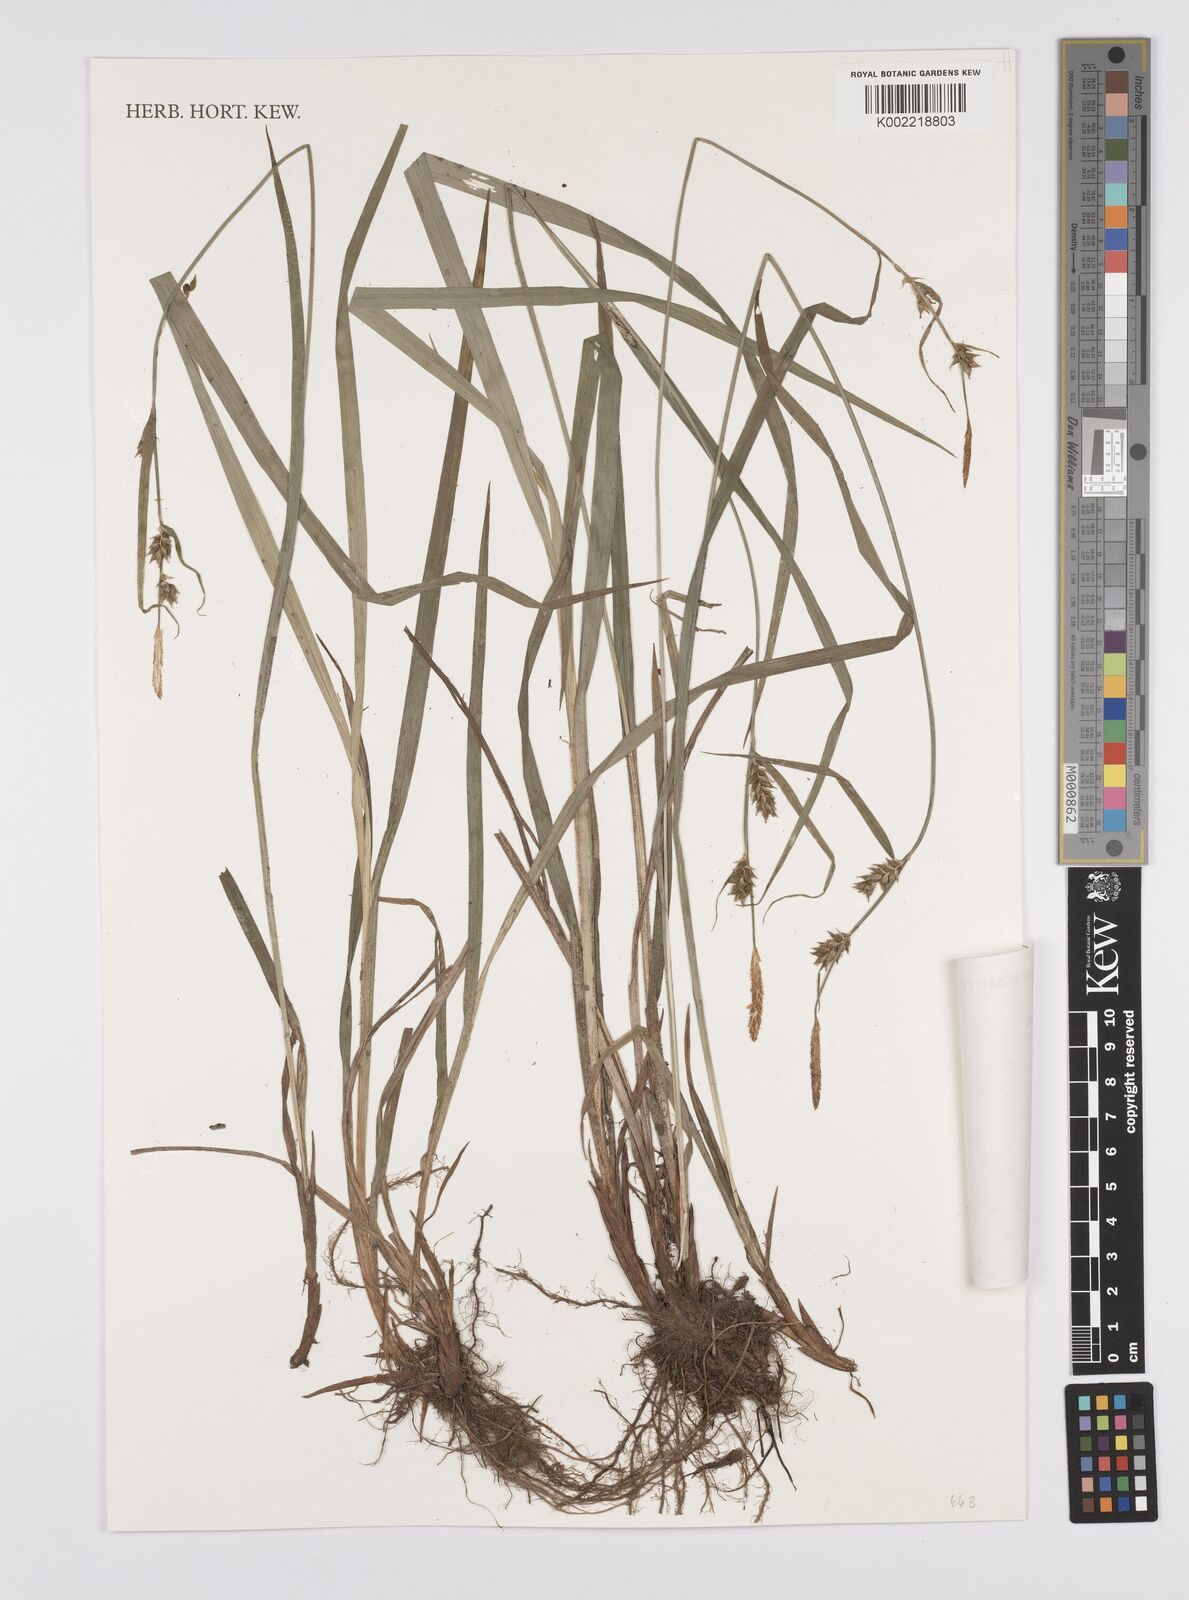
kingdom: Plantae
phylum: Tracheophyta
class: Liliopsida
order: Poales
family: Cyperaceae
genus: Carex
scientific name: Carex latisquamea
